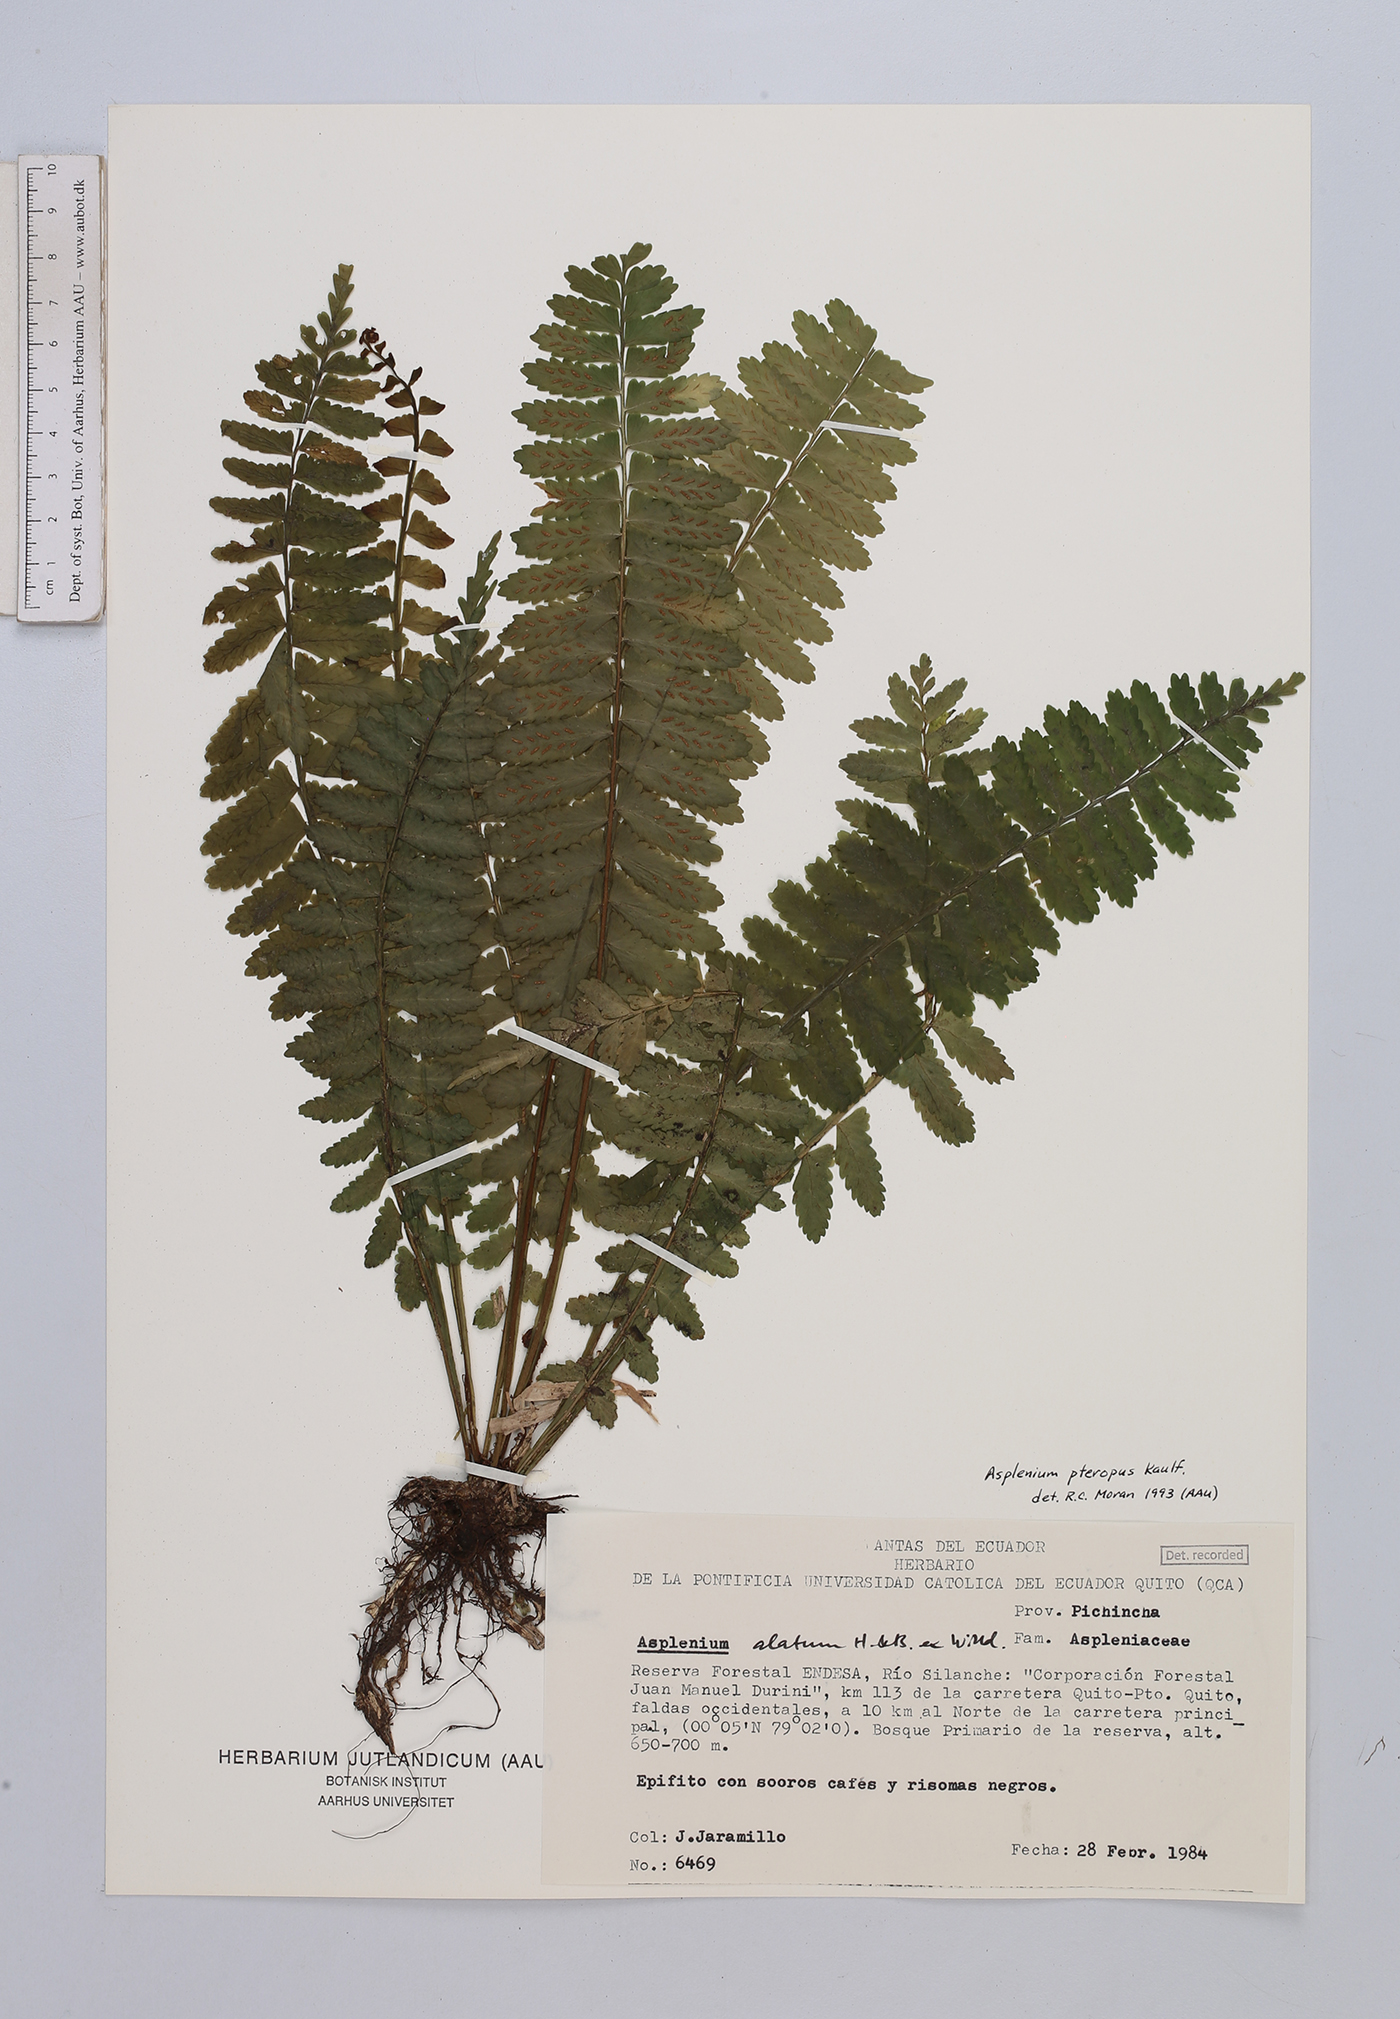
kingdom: Plantae
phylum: Tracheophyta
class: Polypodiopsida
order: Polypodiales
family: Aspleniaceae
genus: Asplenium
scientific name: Asplenium pteropus
